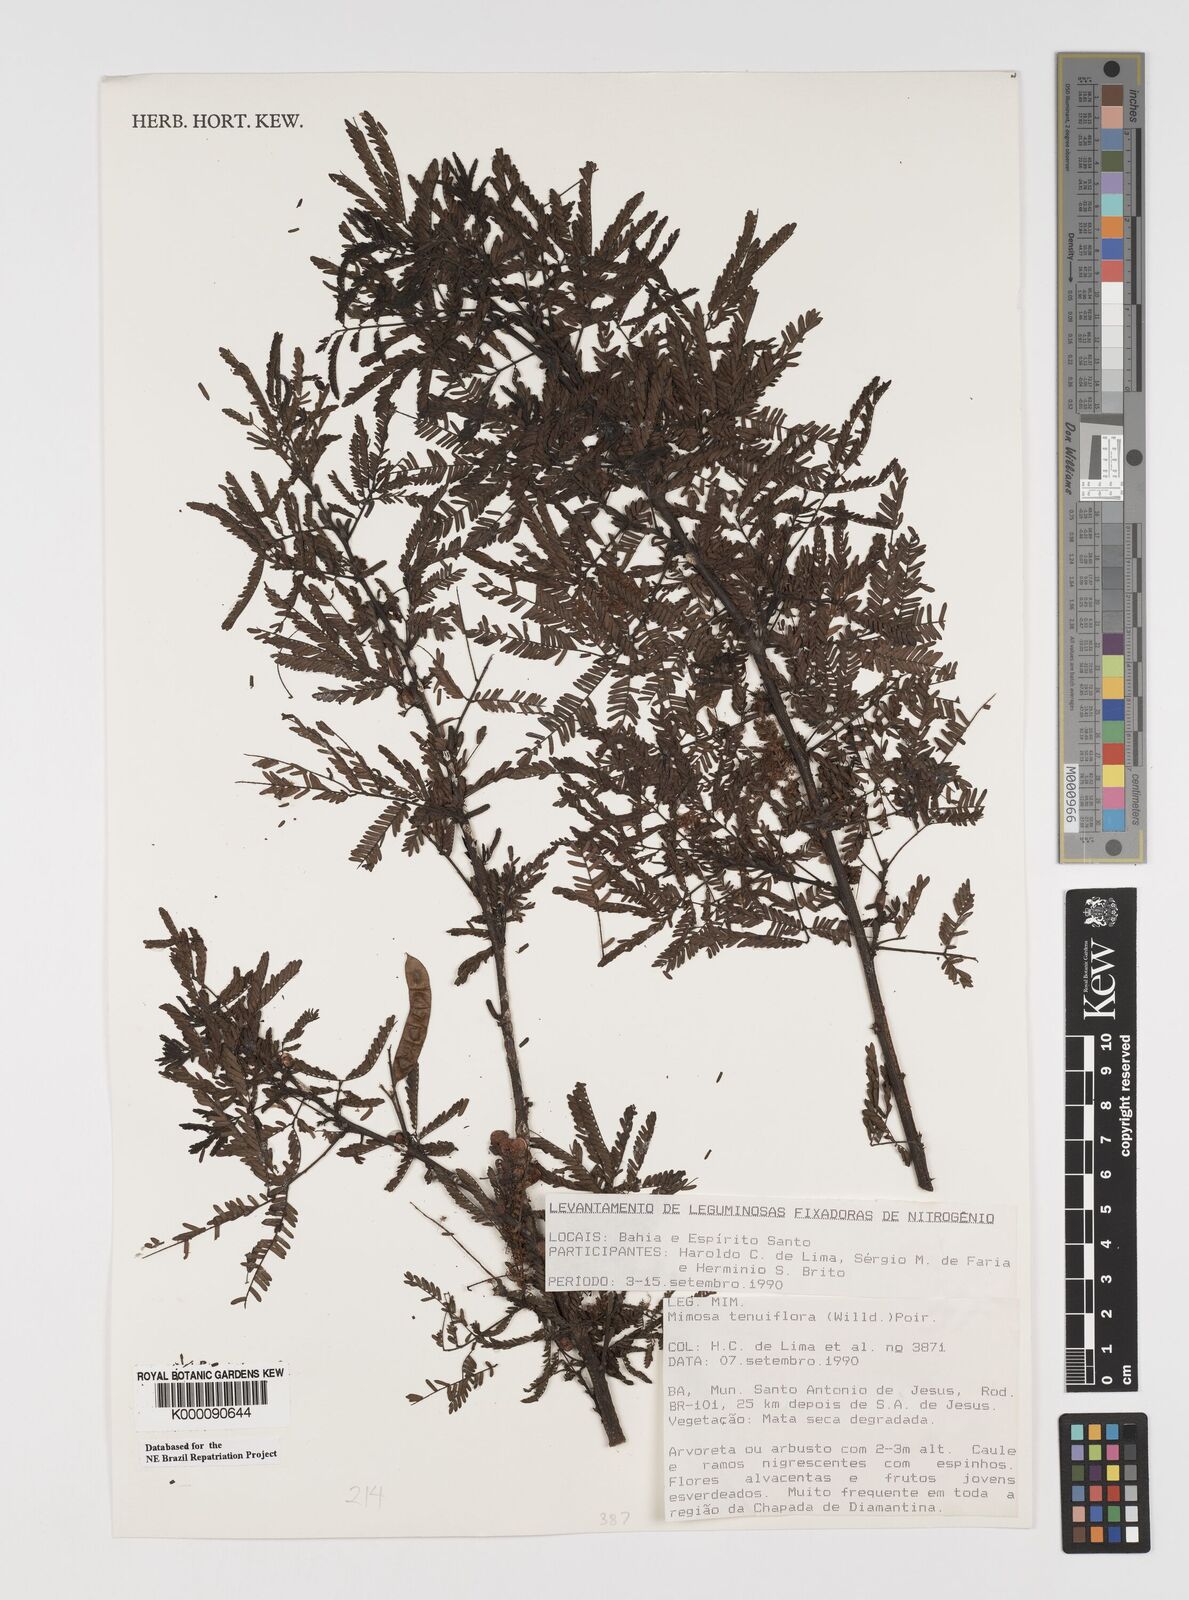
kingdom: Plantae
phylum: Tracheophyta
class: Magnoliopsida
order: Fabales
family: Fabaceae
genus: Mimosa
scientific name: Mimosa tenuiflora
